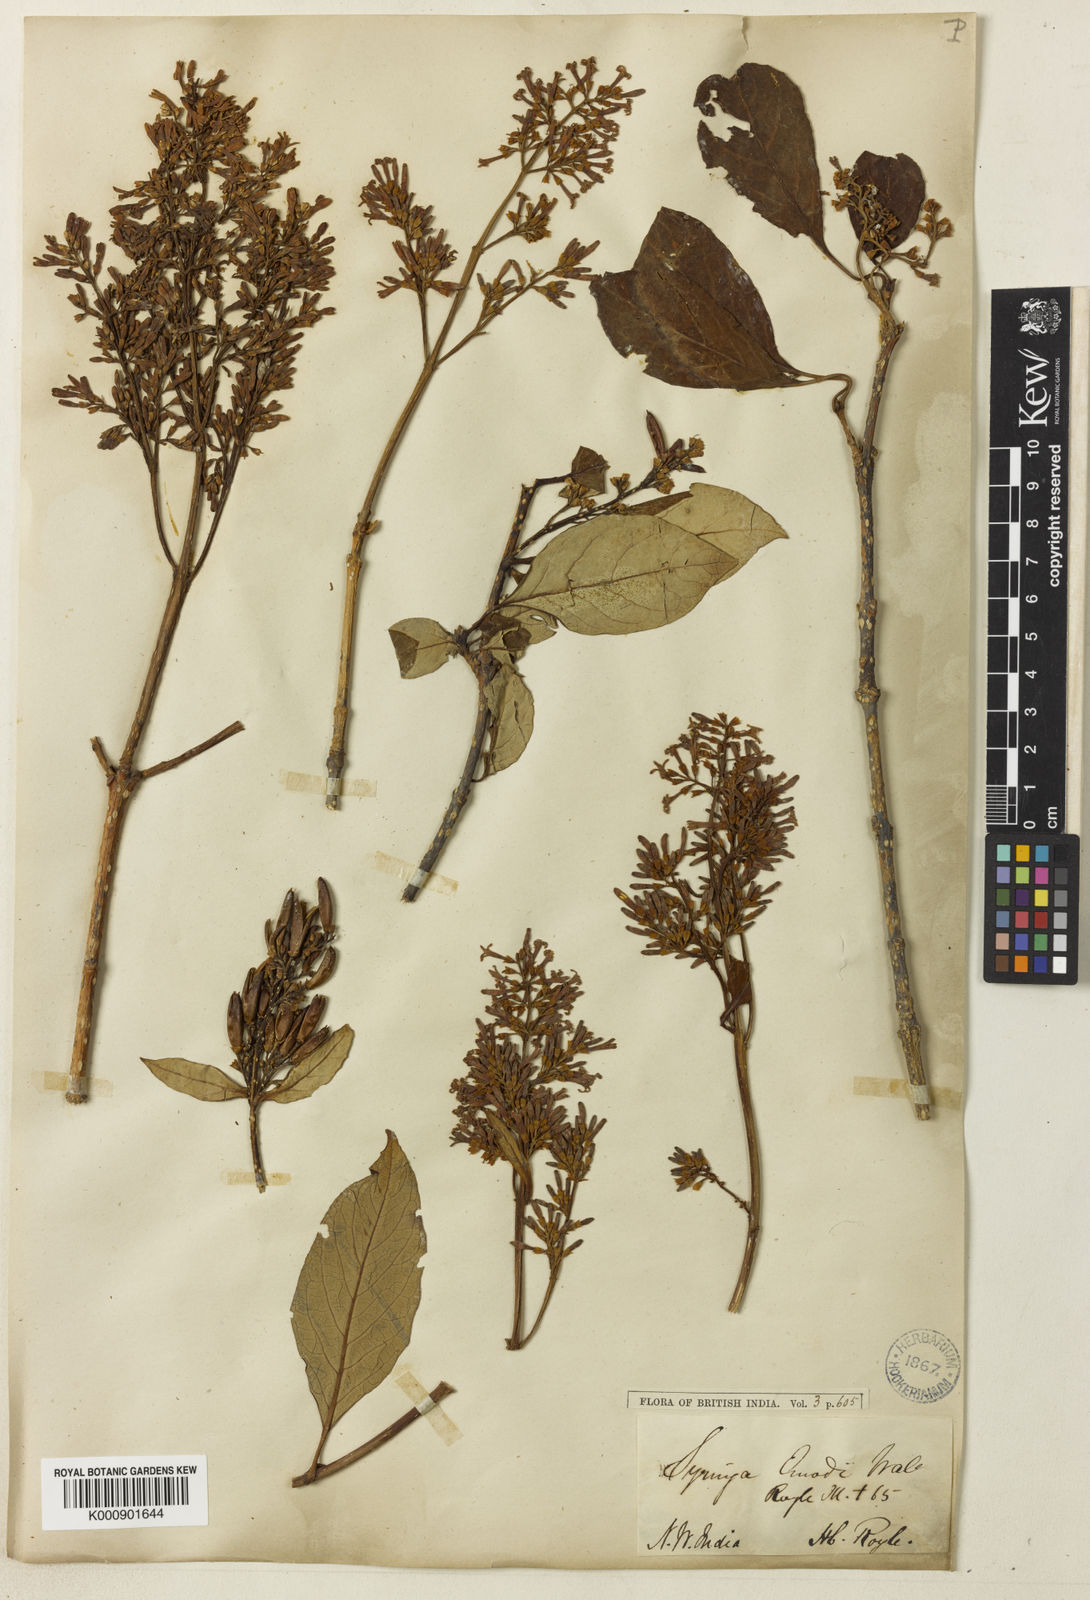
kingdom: Plantae
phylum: Tracheophyta
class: Magnoliopsida
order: Lamiales
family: Oleaceae
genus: Syringa
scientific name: Syringa
